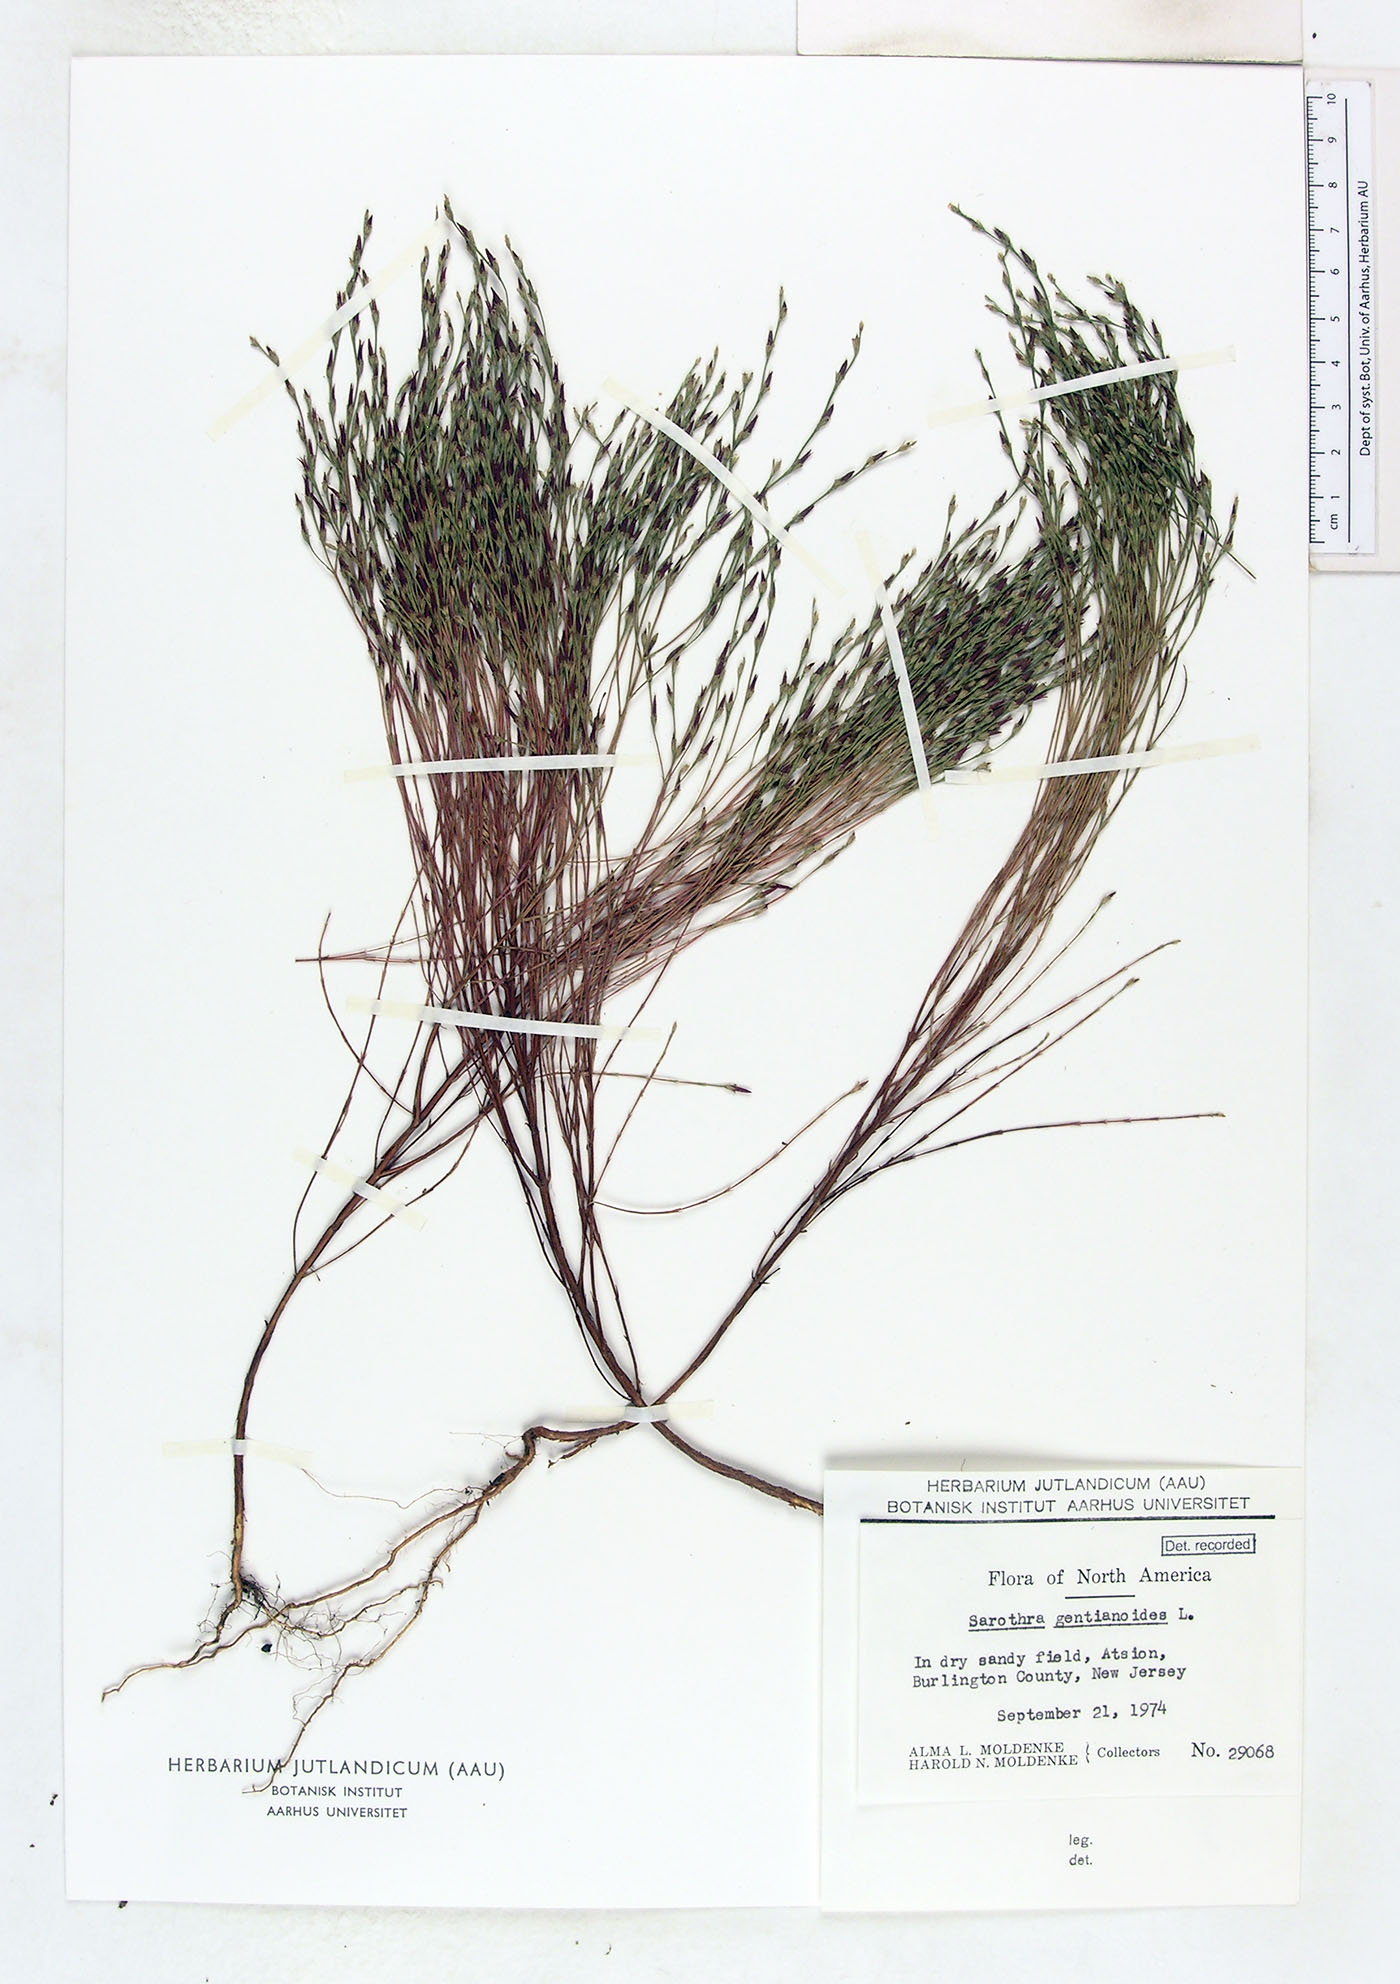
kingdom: Plantae
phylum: Tracheophyta
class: Magnoliopsida
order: Malpighiales
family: Hypericaceae
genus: Hypericum
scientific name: Hypericum gentianoides
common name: Gentian-leaved st. john's-wort
